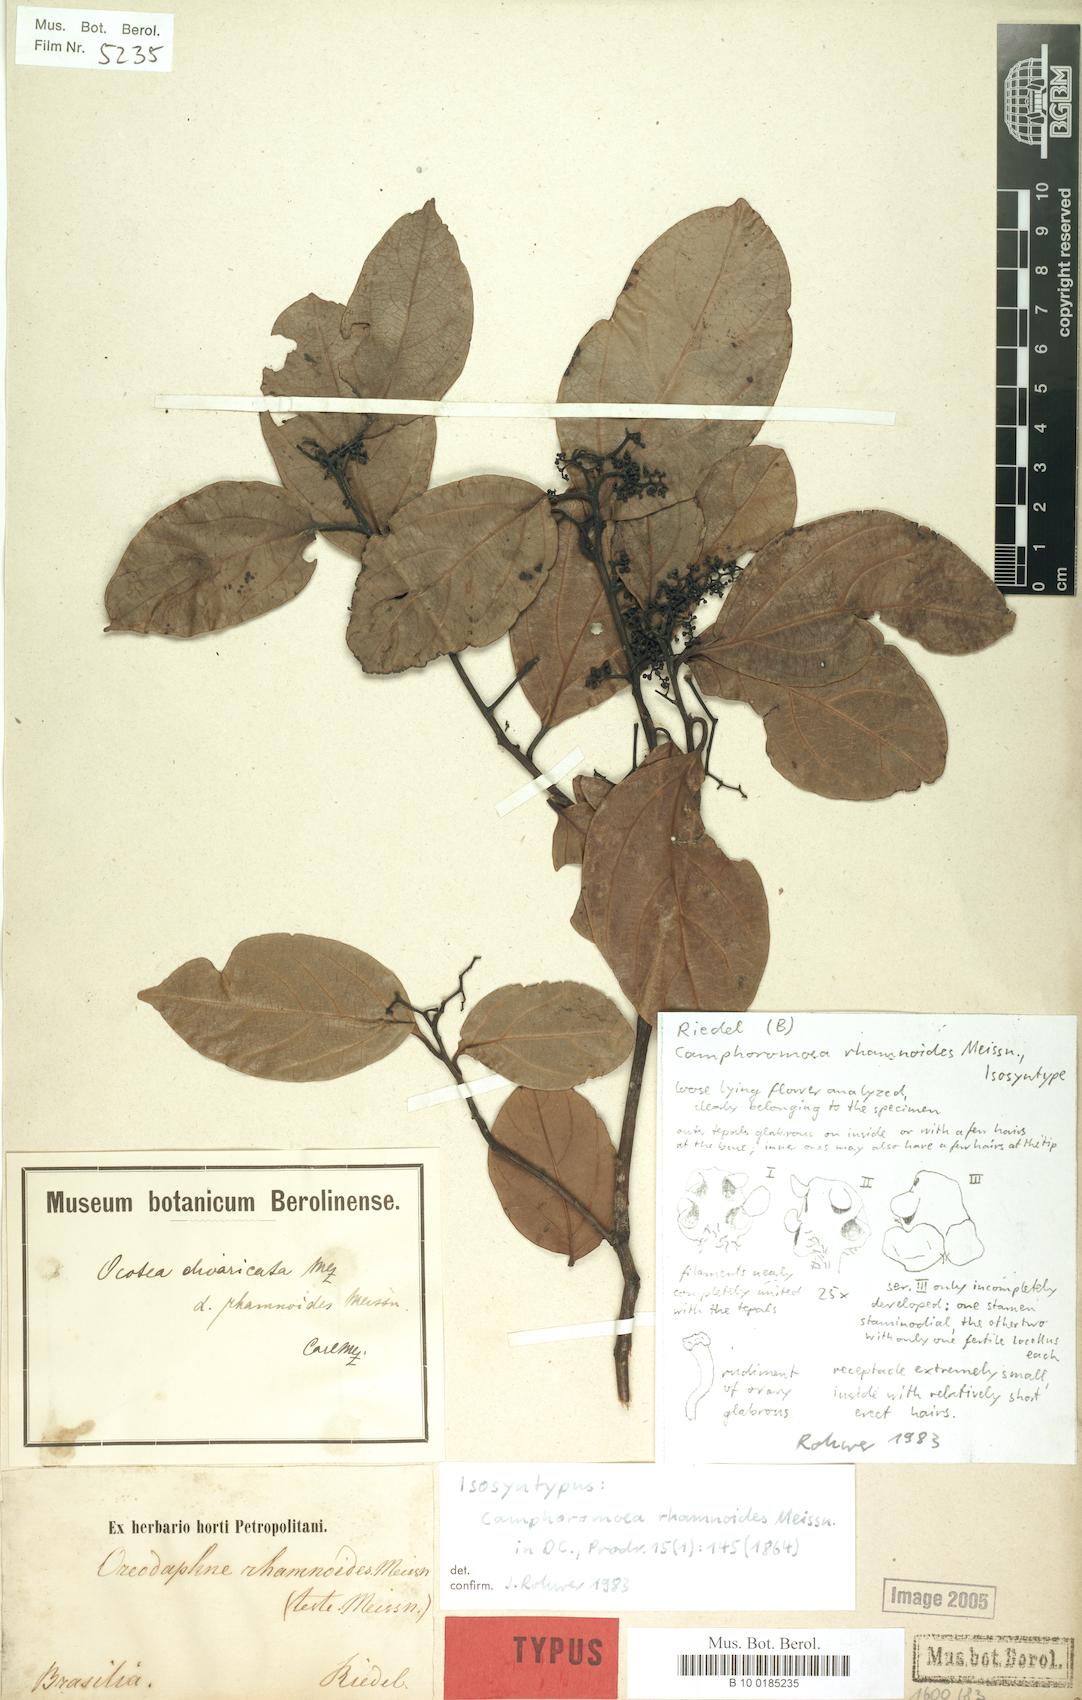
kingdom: Plantae
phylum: Tracheophyta
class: Magnoliopsida
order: Laurales
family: Lauraceae
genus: Ocotea
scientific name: Ocotea divaricata
